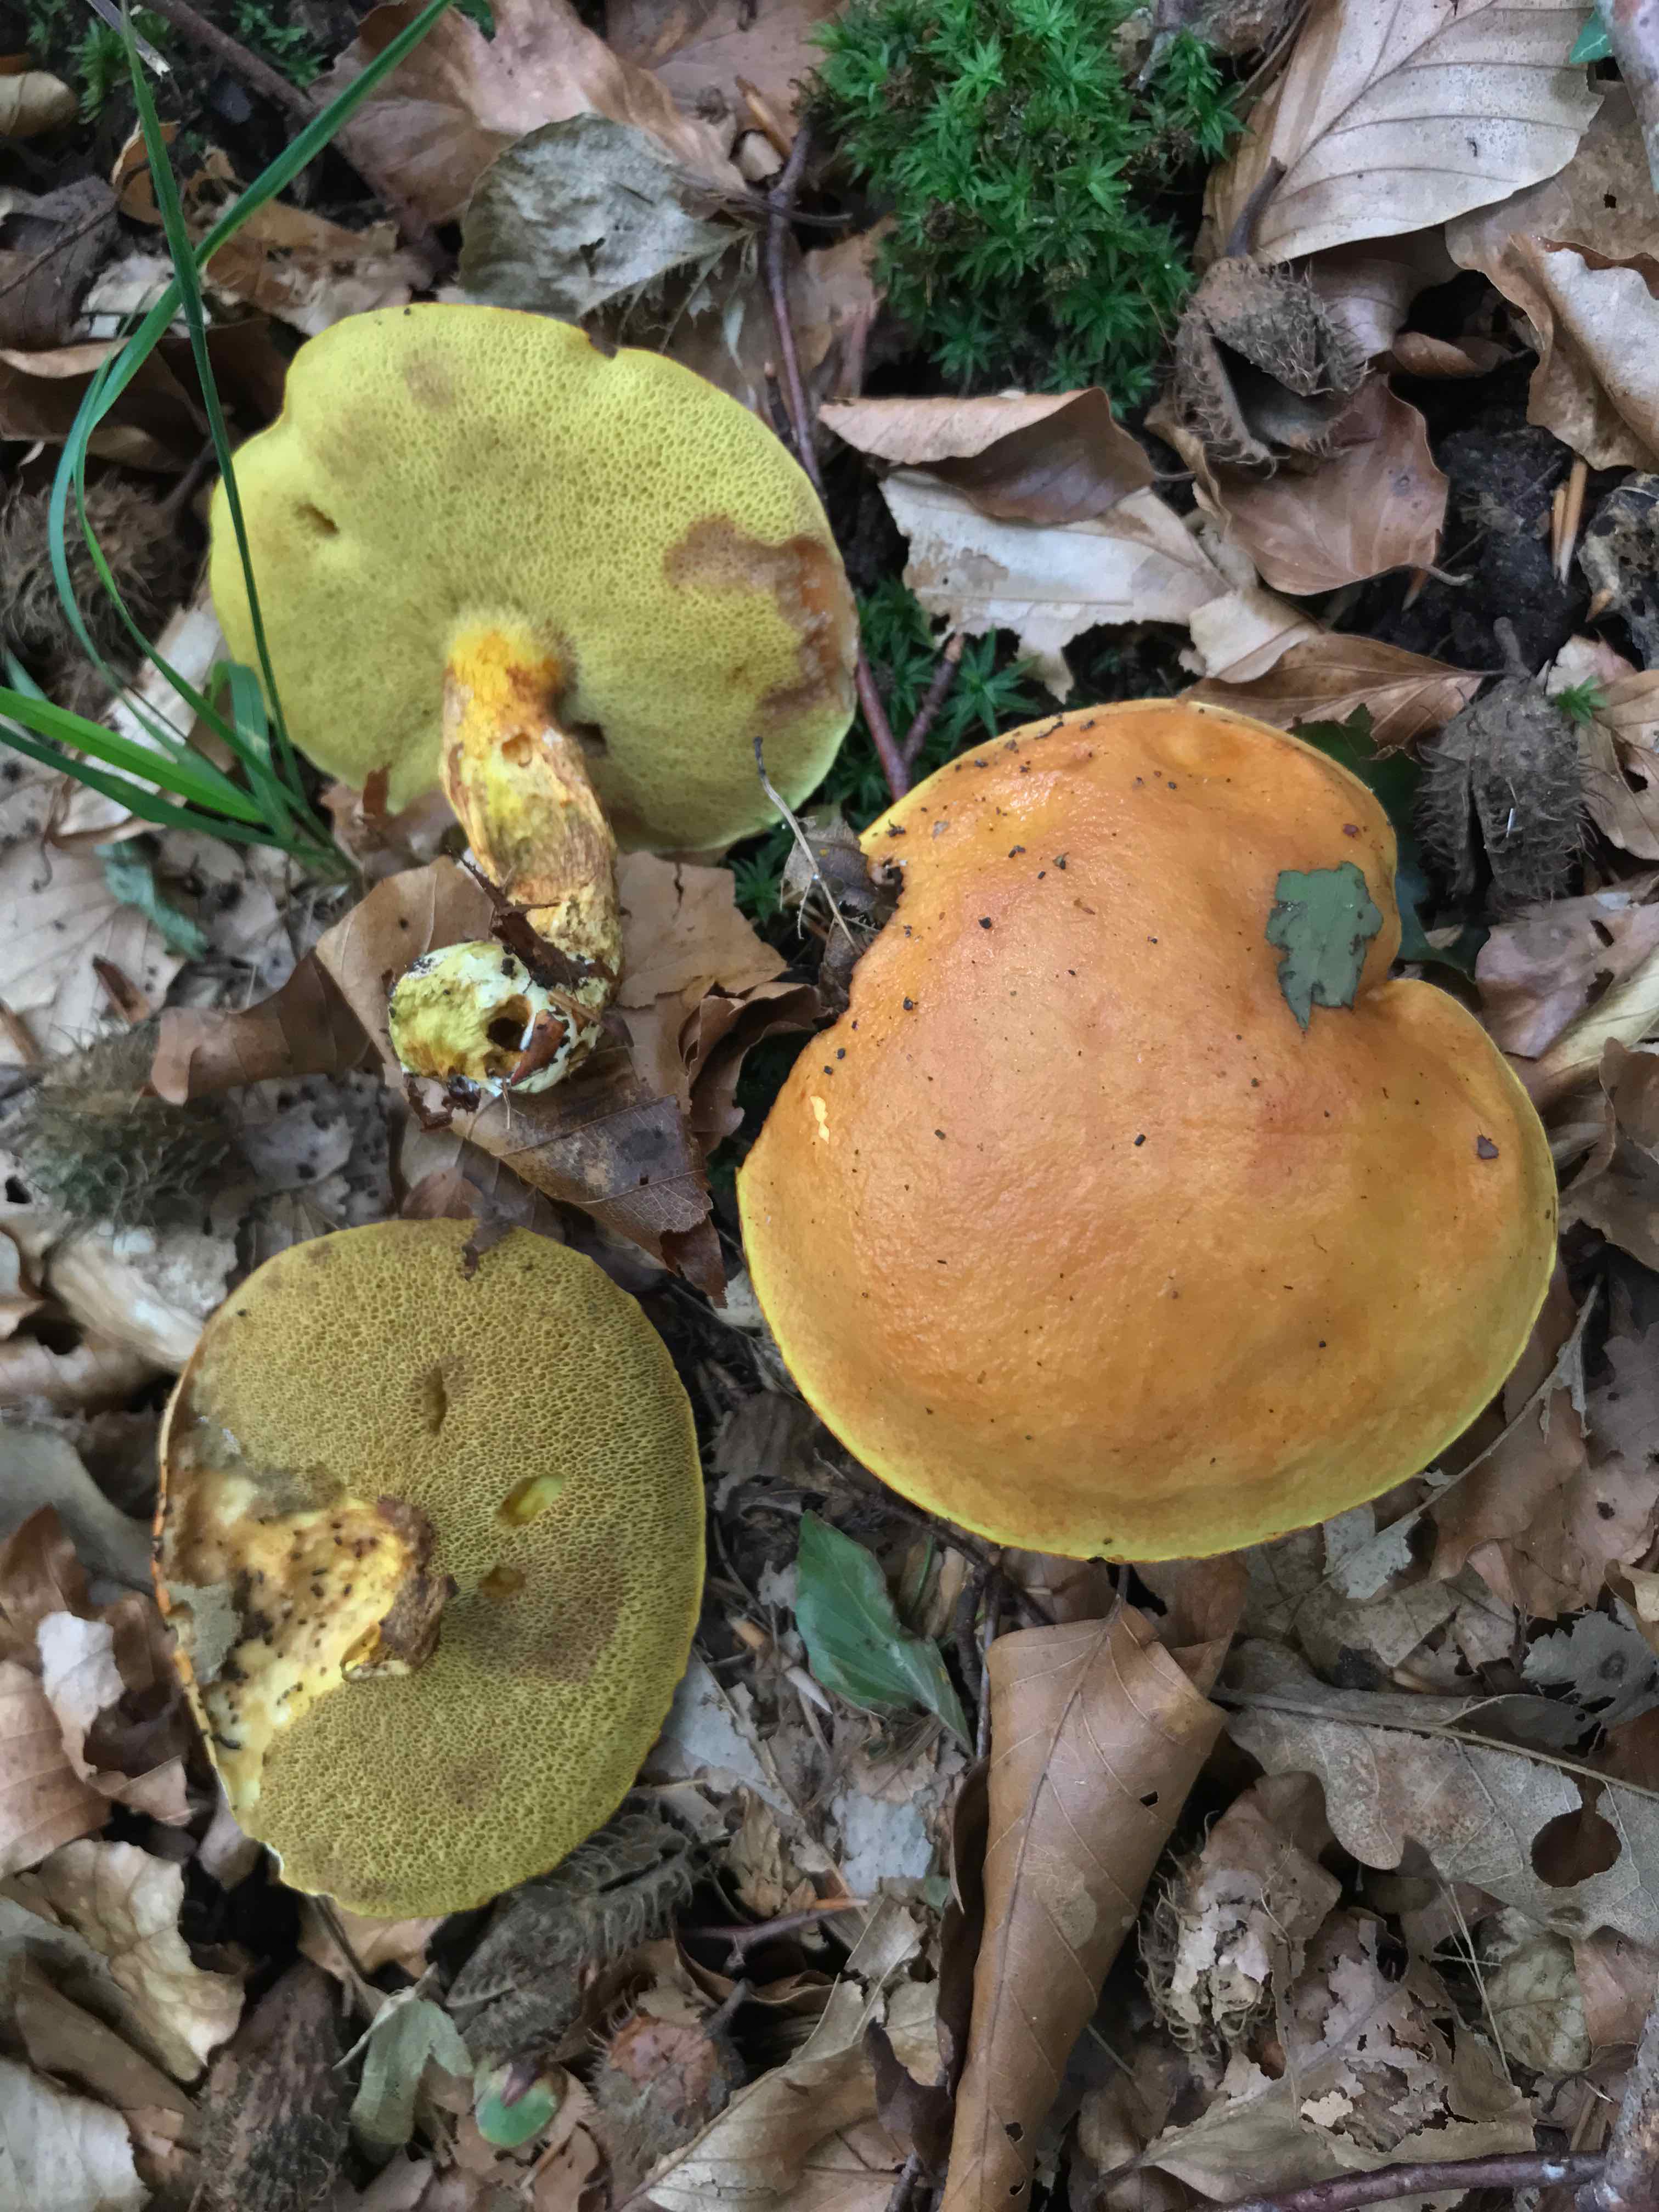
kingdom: Fungi
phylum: Basidiomycota
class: Agaricomycetes
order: Boletales
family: Suillaceae
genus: Suillus
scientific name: Suillus grevillei
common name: lærke-slimrørhat
